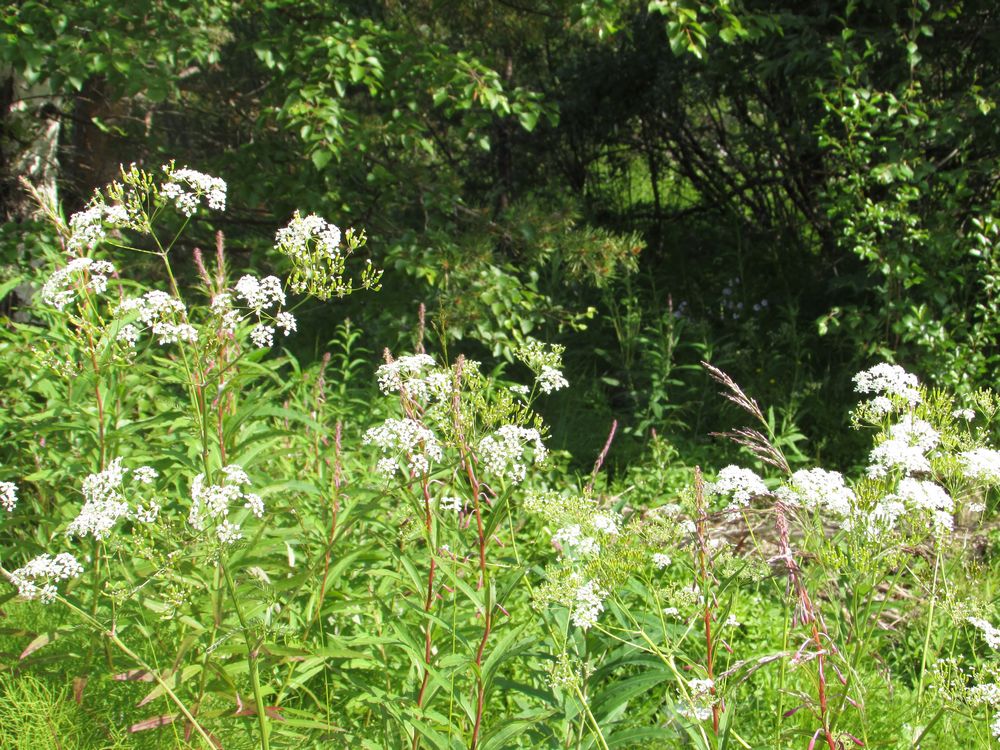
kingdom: Plantae
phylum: Tracheophyta
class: Magnoliopsida
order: Apiales
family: Apiaceae
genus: Anthriscus
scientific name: Anthriscus sylvestris
